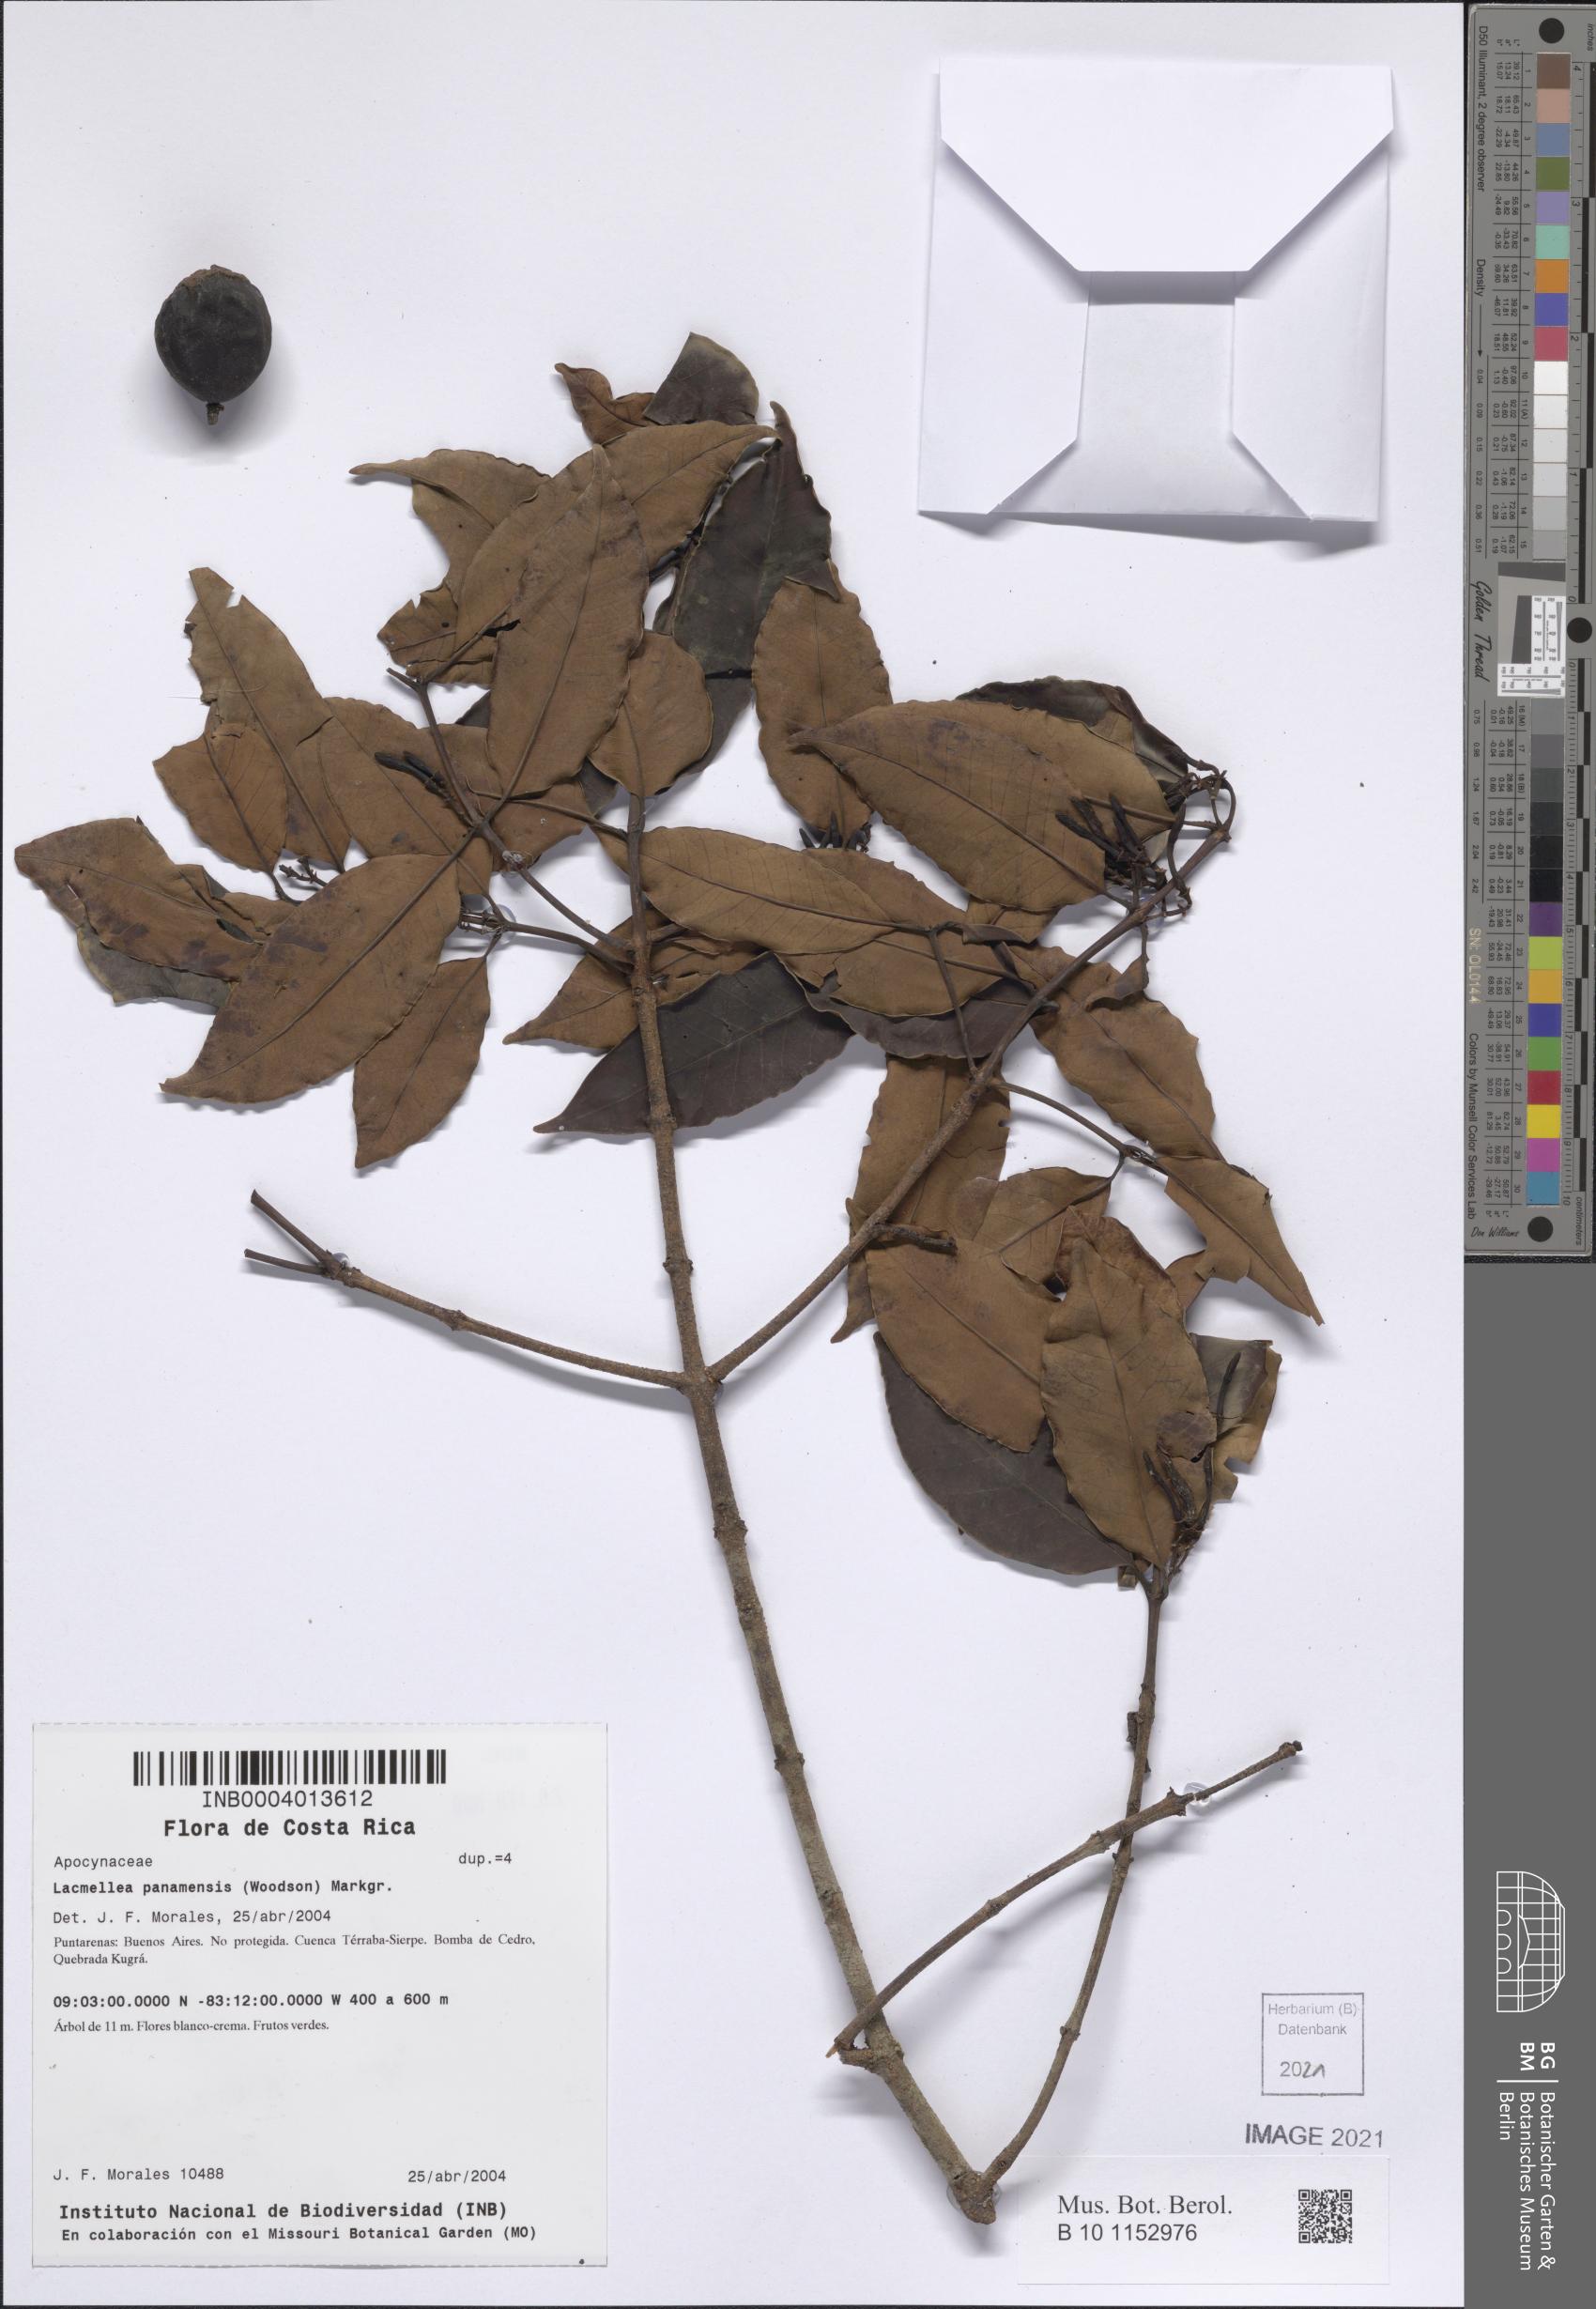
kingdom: Plantae
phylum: Tracheophyta
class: Magnoliopsida
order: Gentianales
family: Apocynaceae
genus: Lacmellea
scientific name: Lacmellea panamensis
